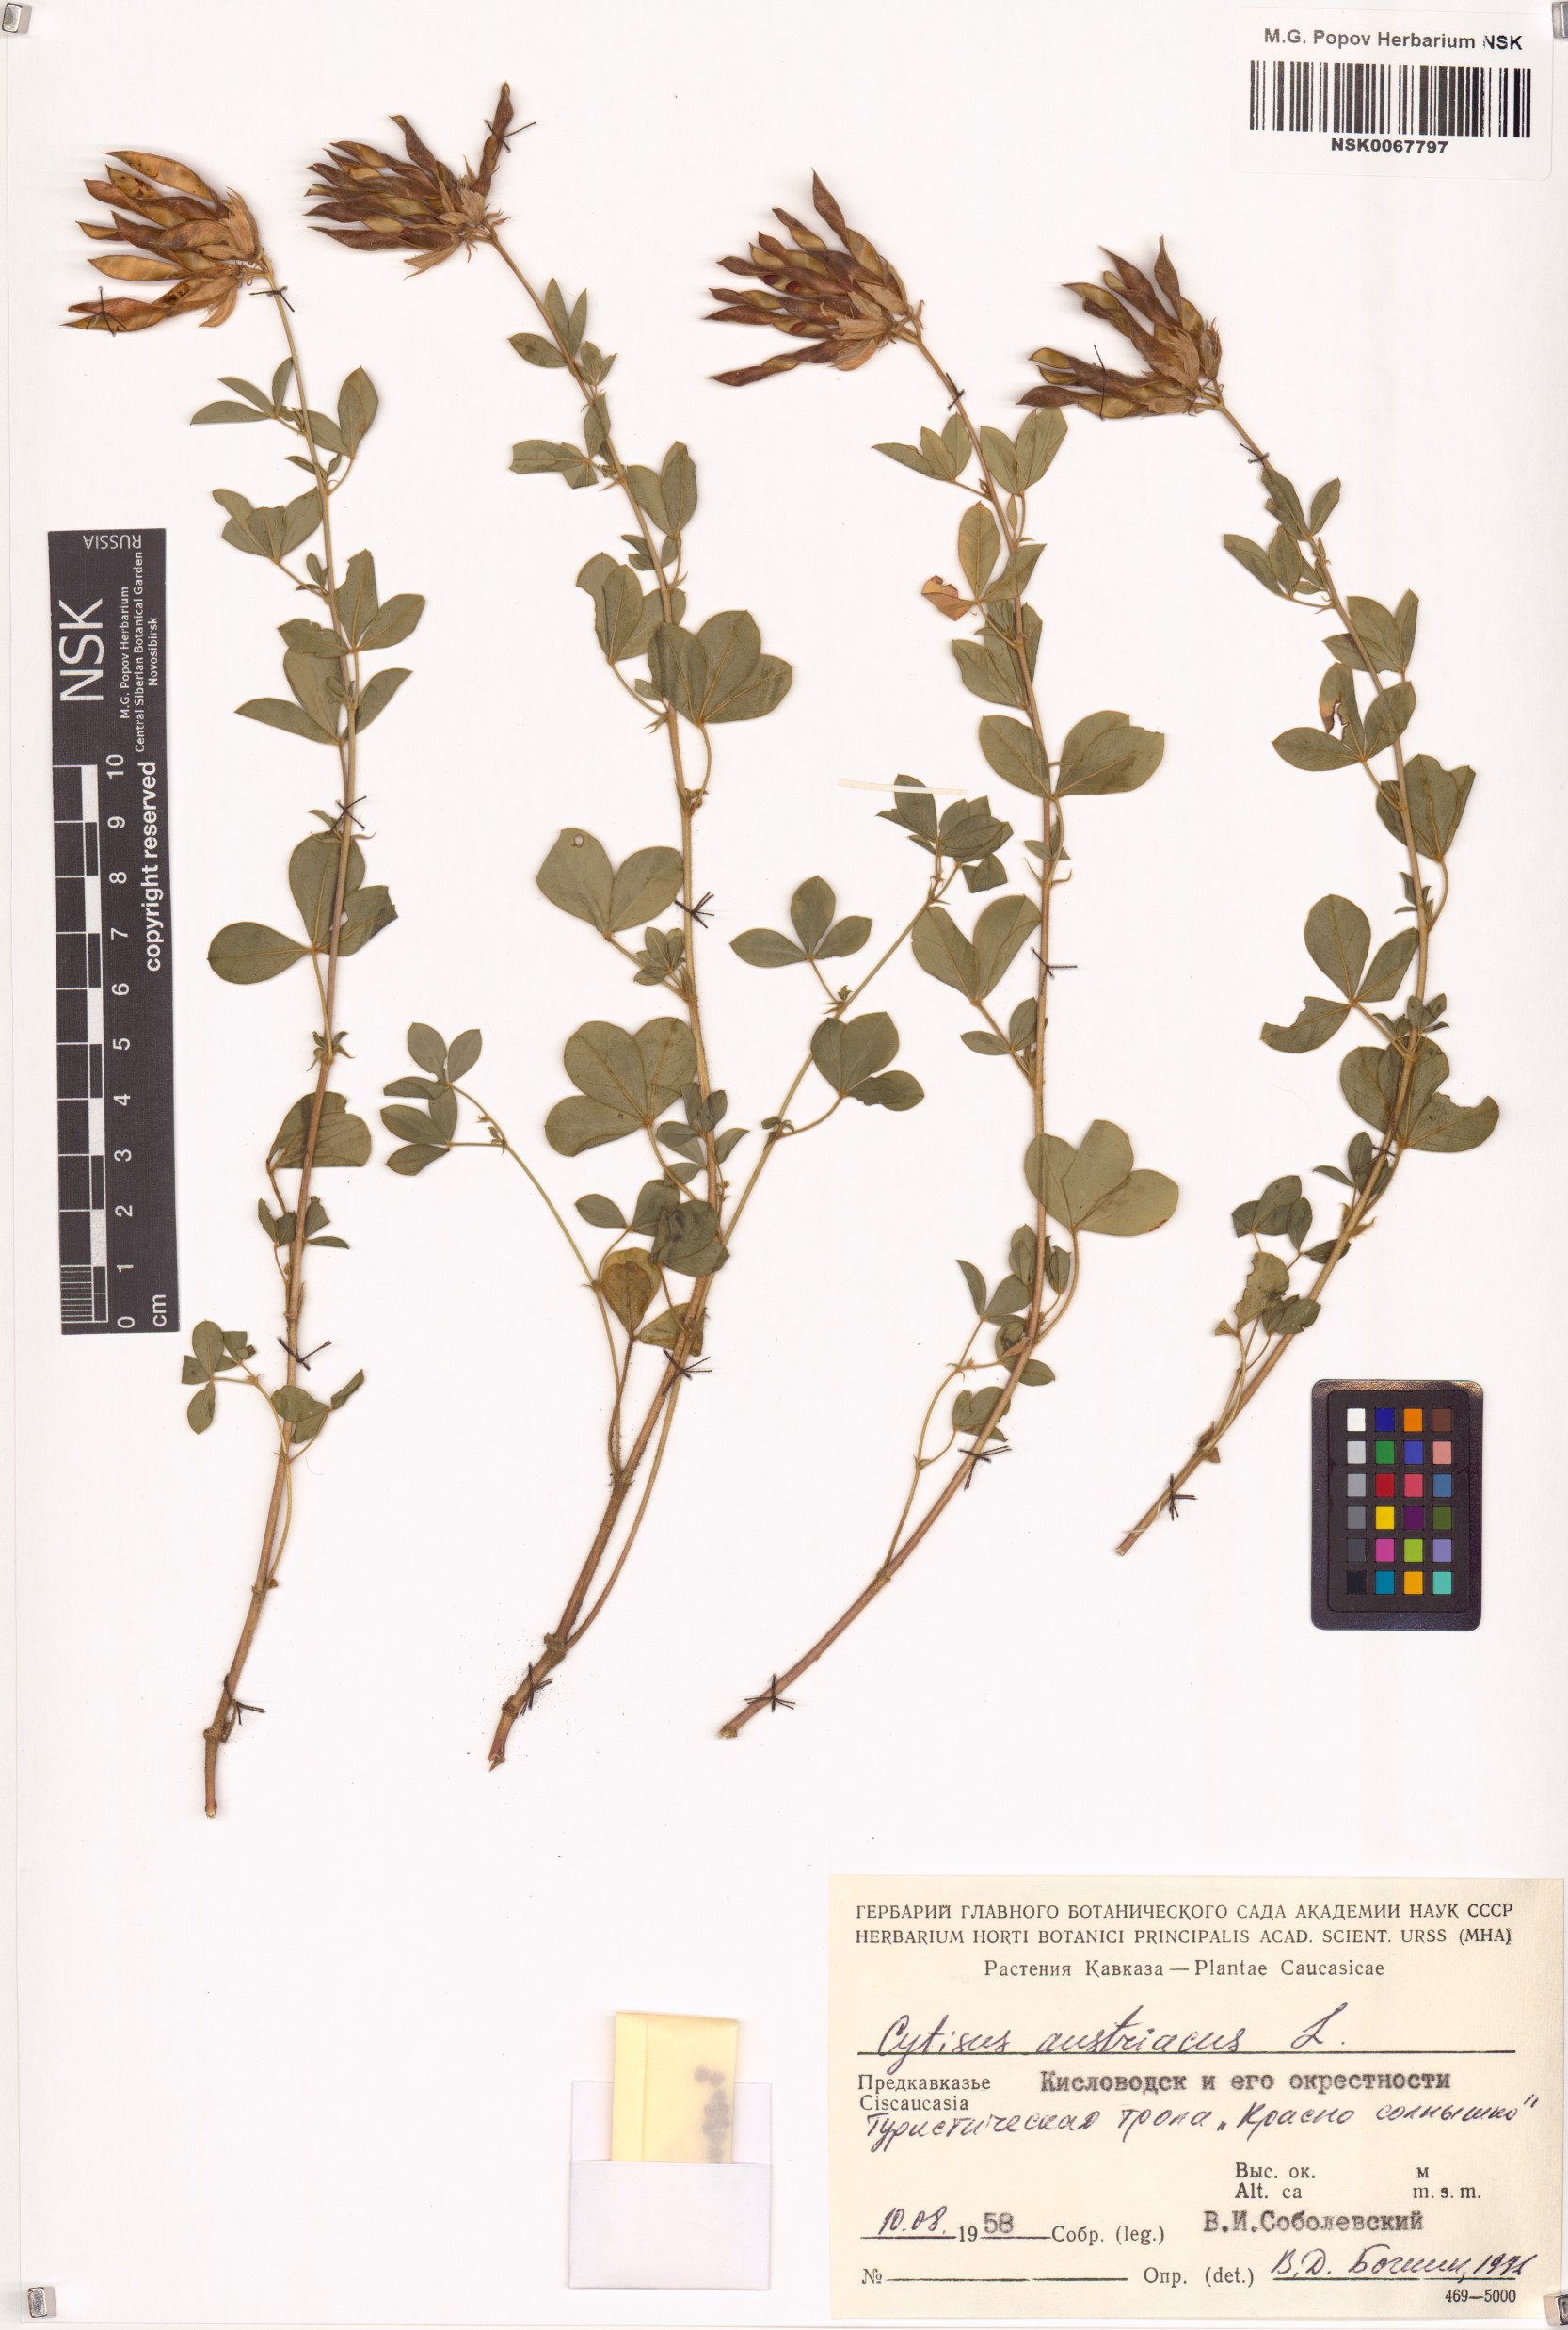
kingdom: Plantae
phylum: Tracheophyta
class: Magnoliopsida
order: Fabales
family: Fabaceae
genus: Chamaecytisus
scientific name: Chamaecytisus austriacus
